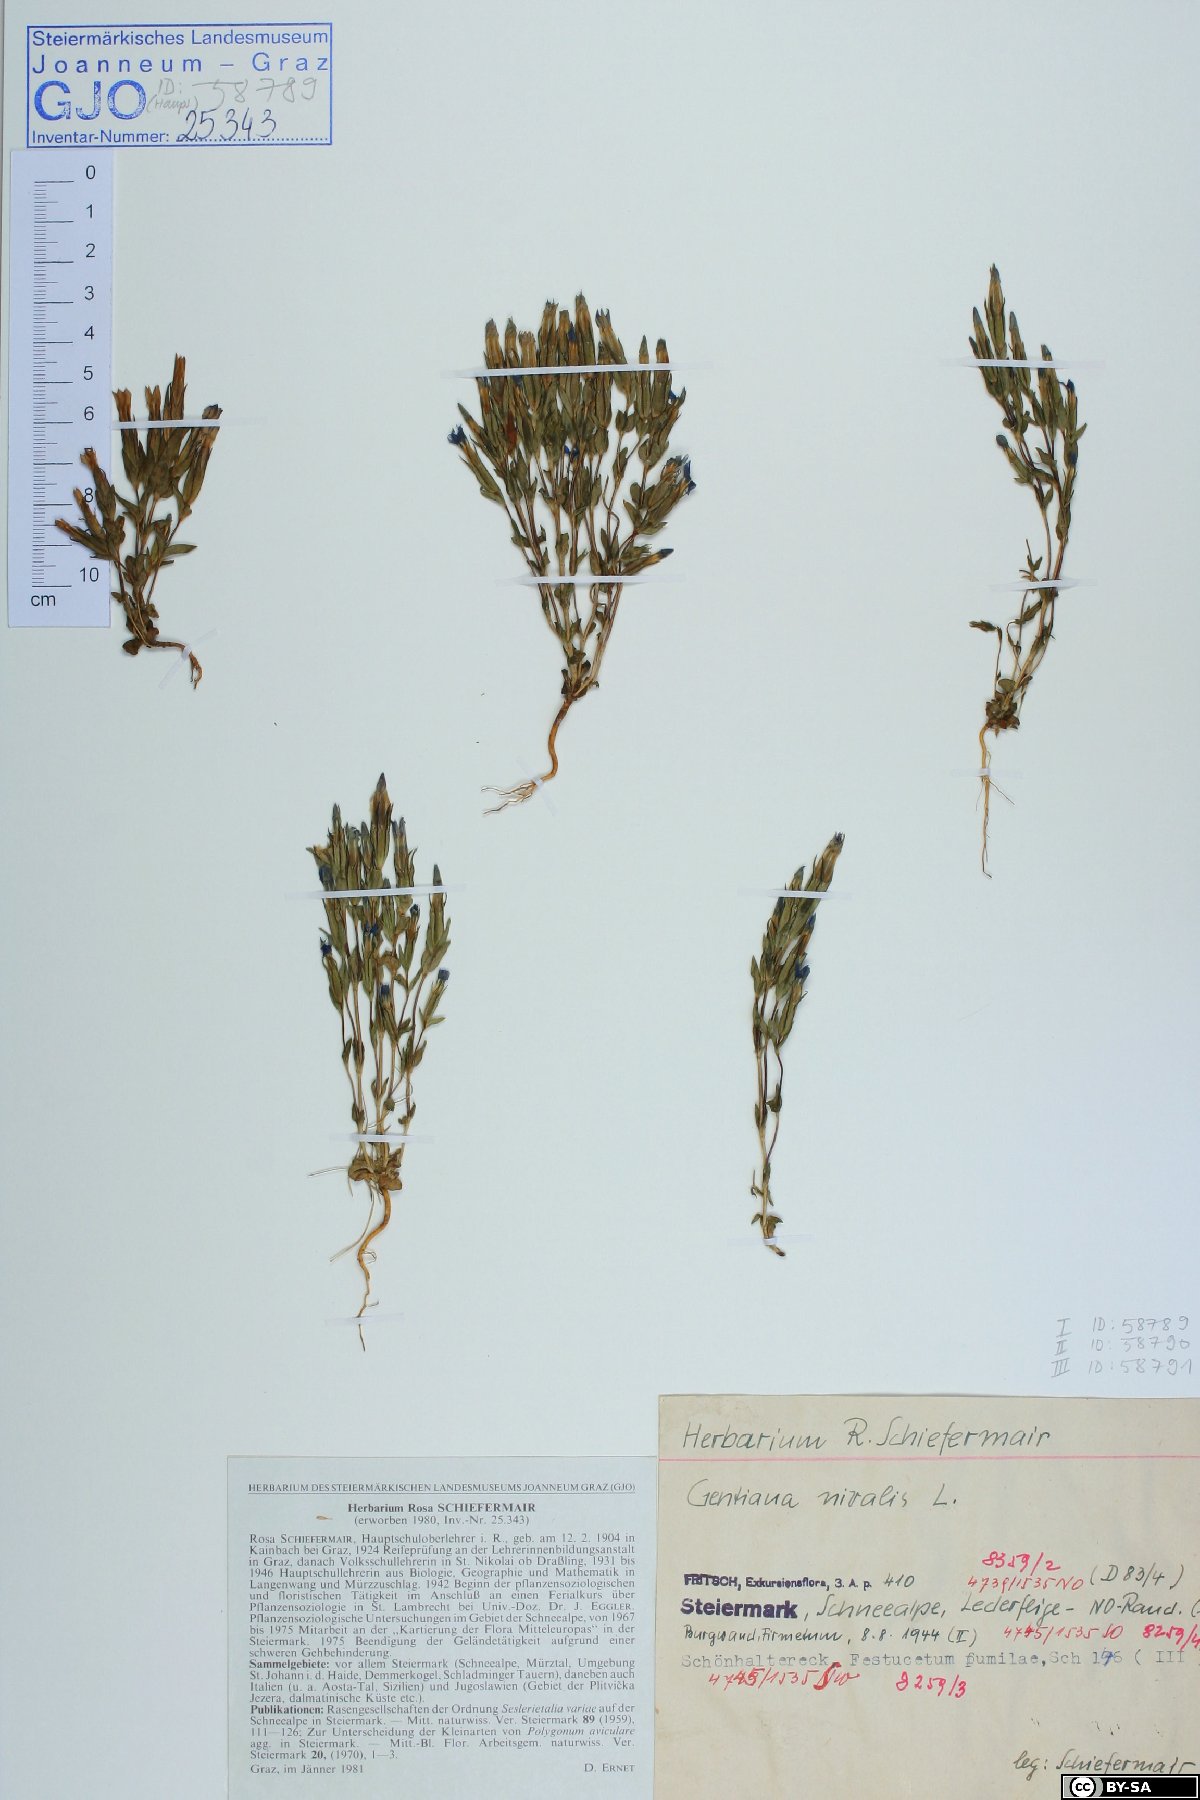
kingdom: Plantae
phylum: Tracheophyta
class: Magnoliopsida
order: Gentianales
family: Gentianaceae
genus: Gentiana
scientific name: Gentiana nivalis
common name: Alpine gentian
